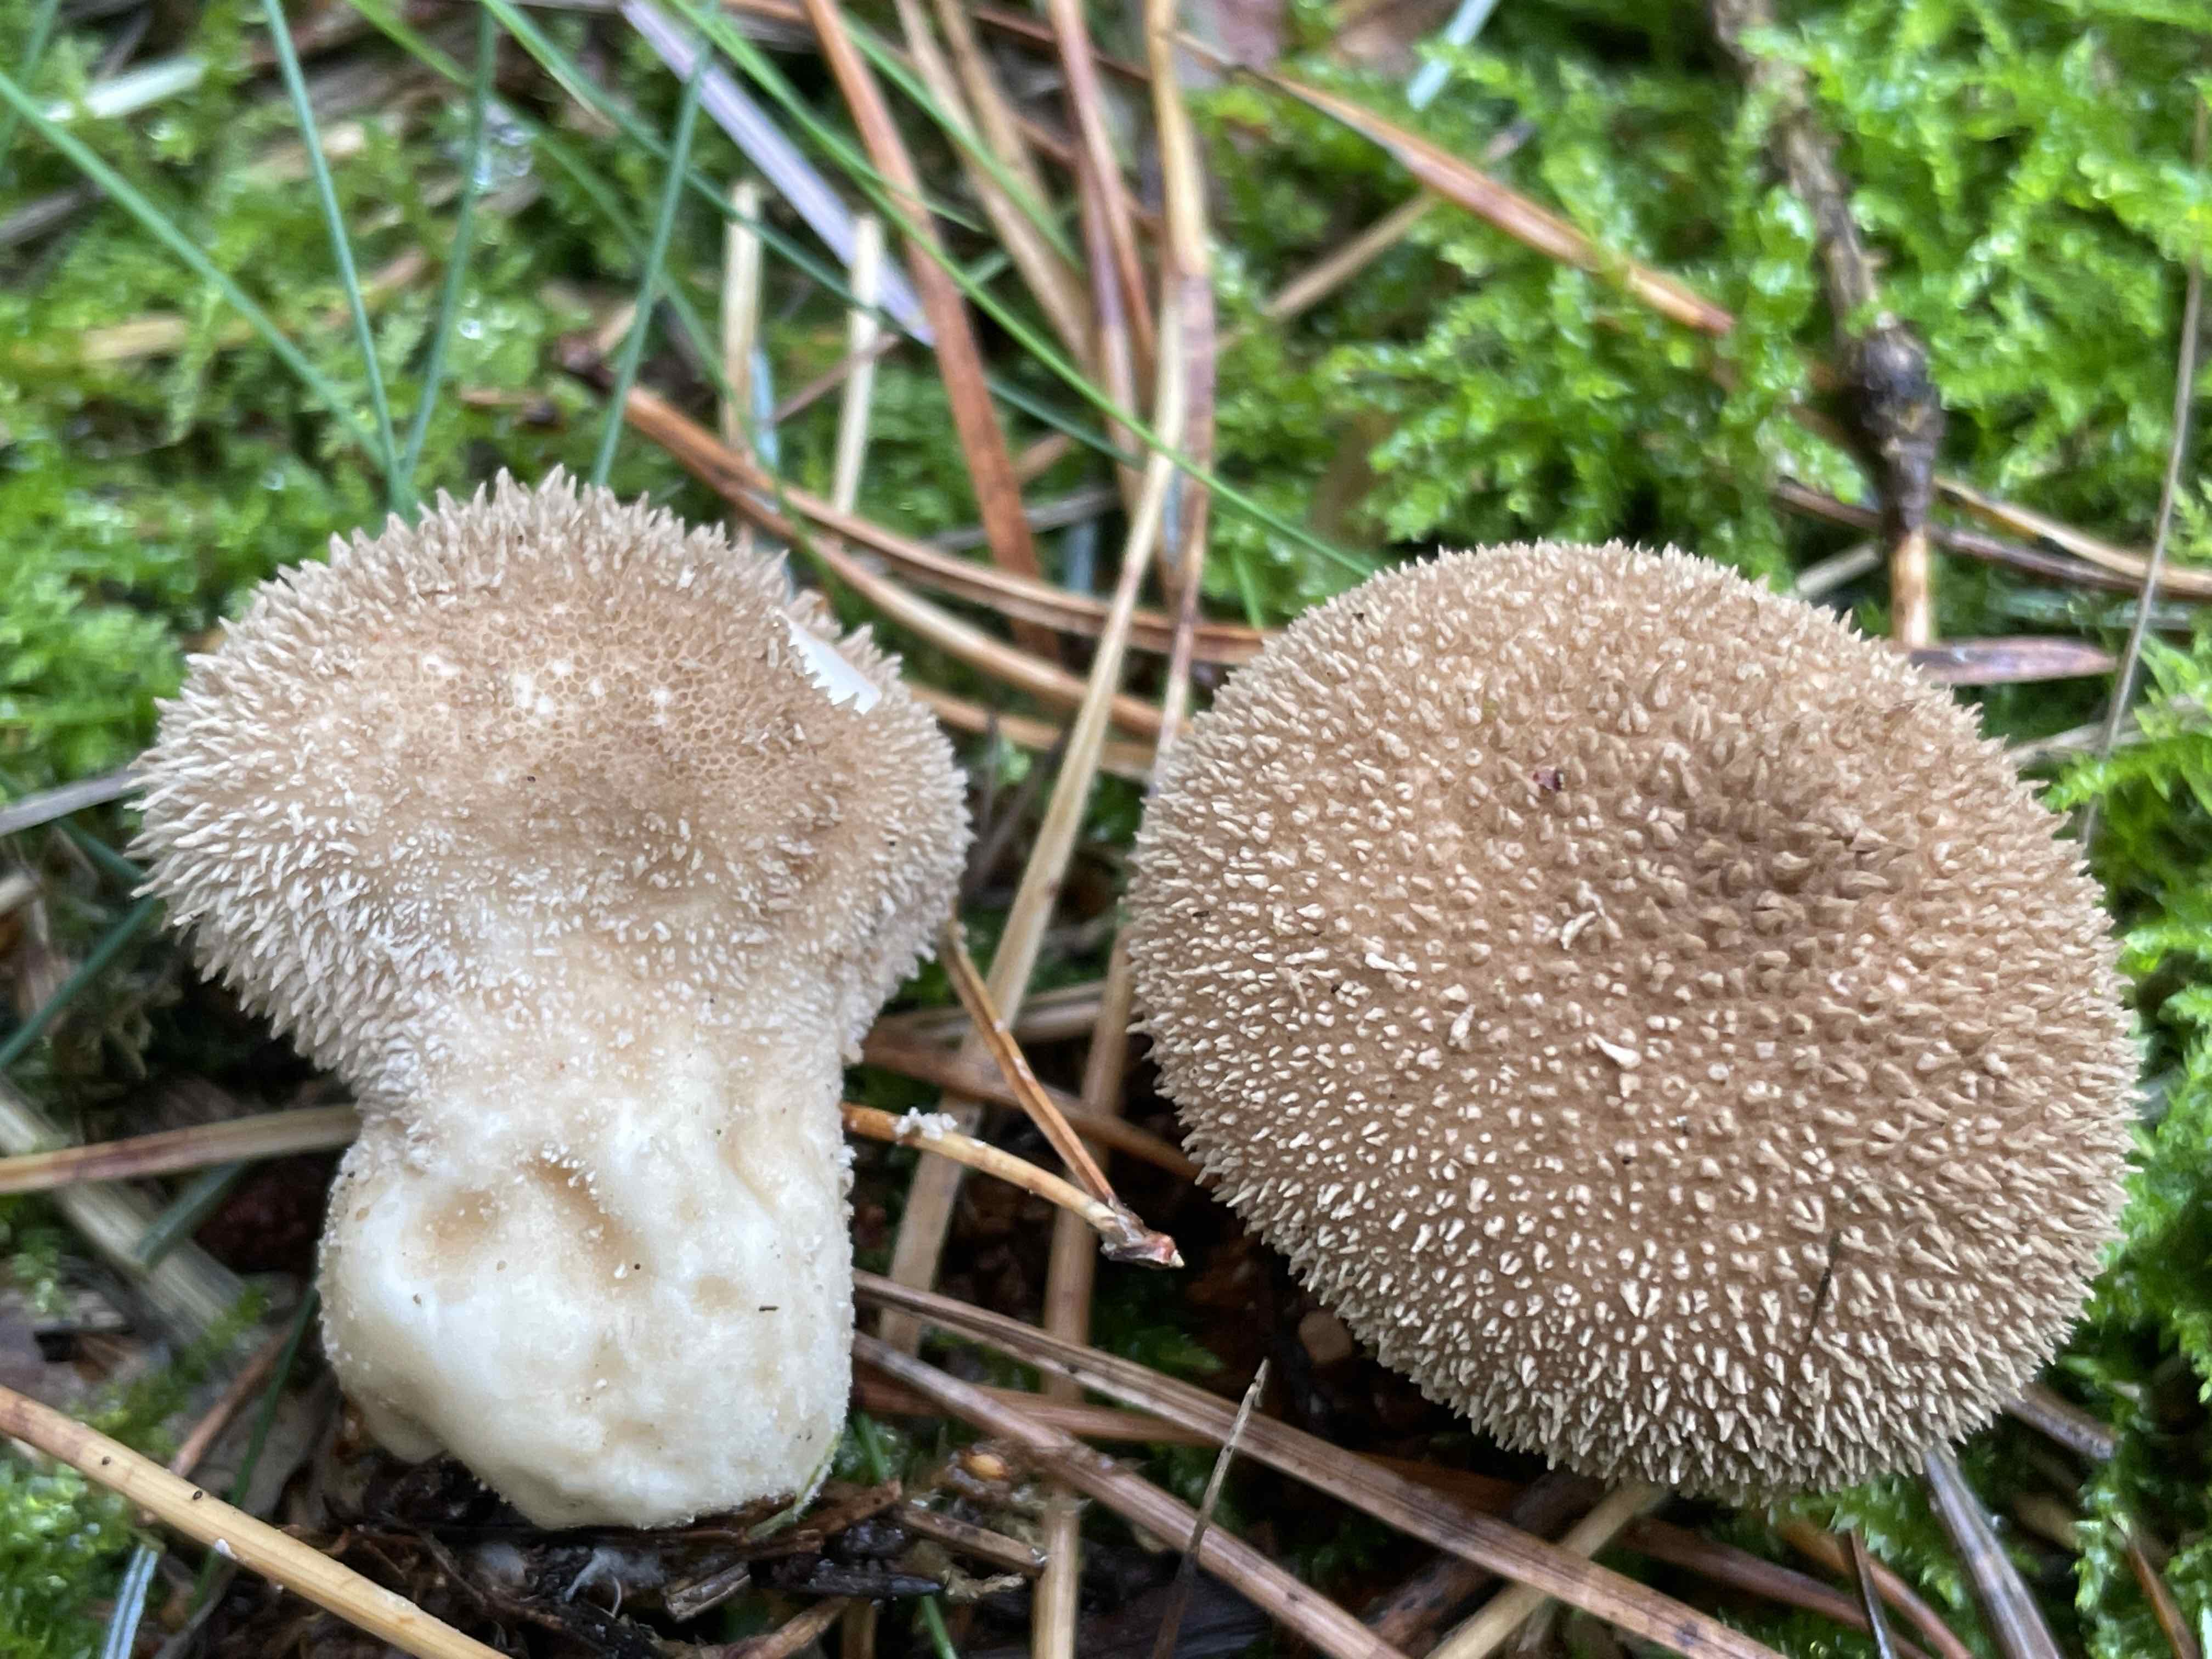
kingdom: Fungi
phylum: Basidiomycota
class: Agaricomycetes
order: Agaricales
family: Lycoperdaceae
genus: Lycoperdon
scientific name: Lycoperdon nigrescens
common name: sortagtig støvbold
